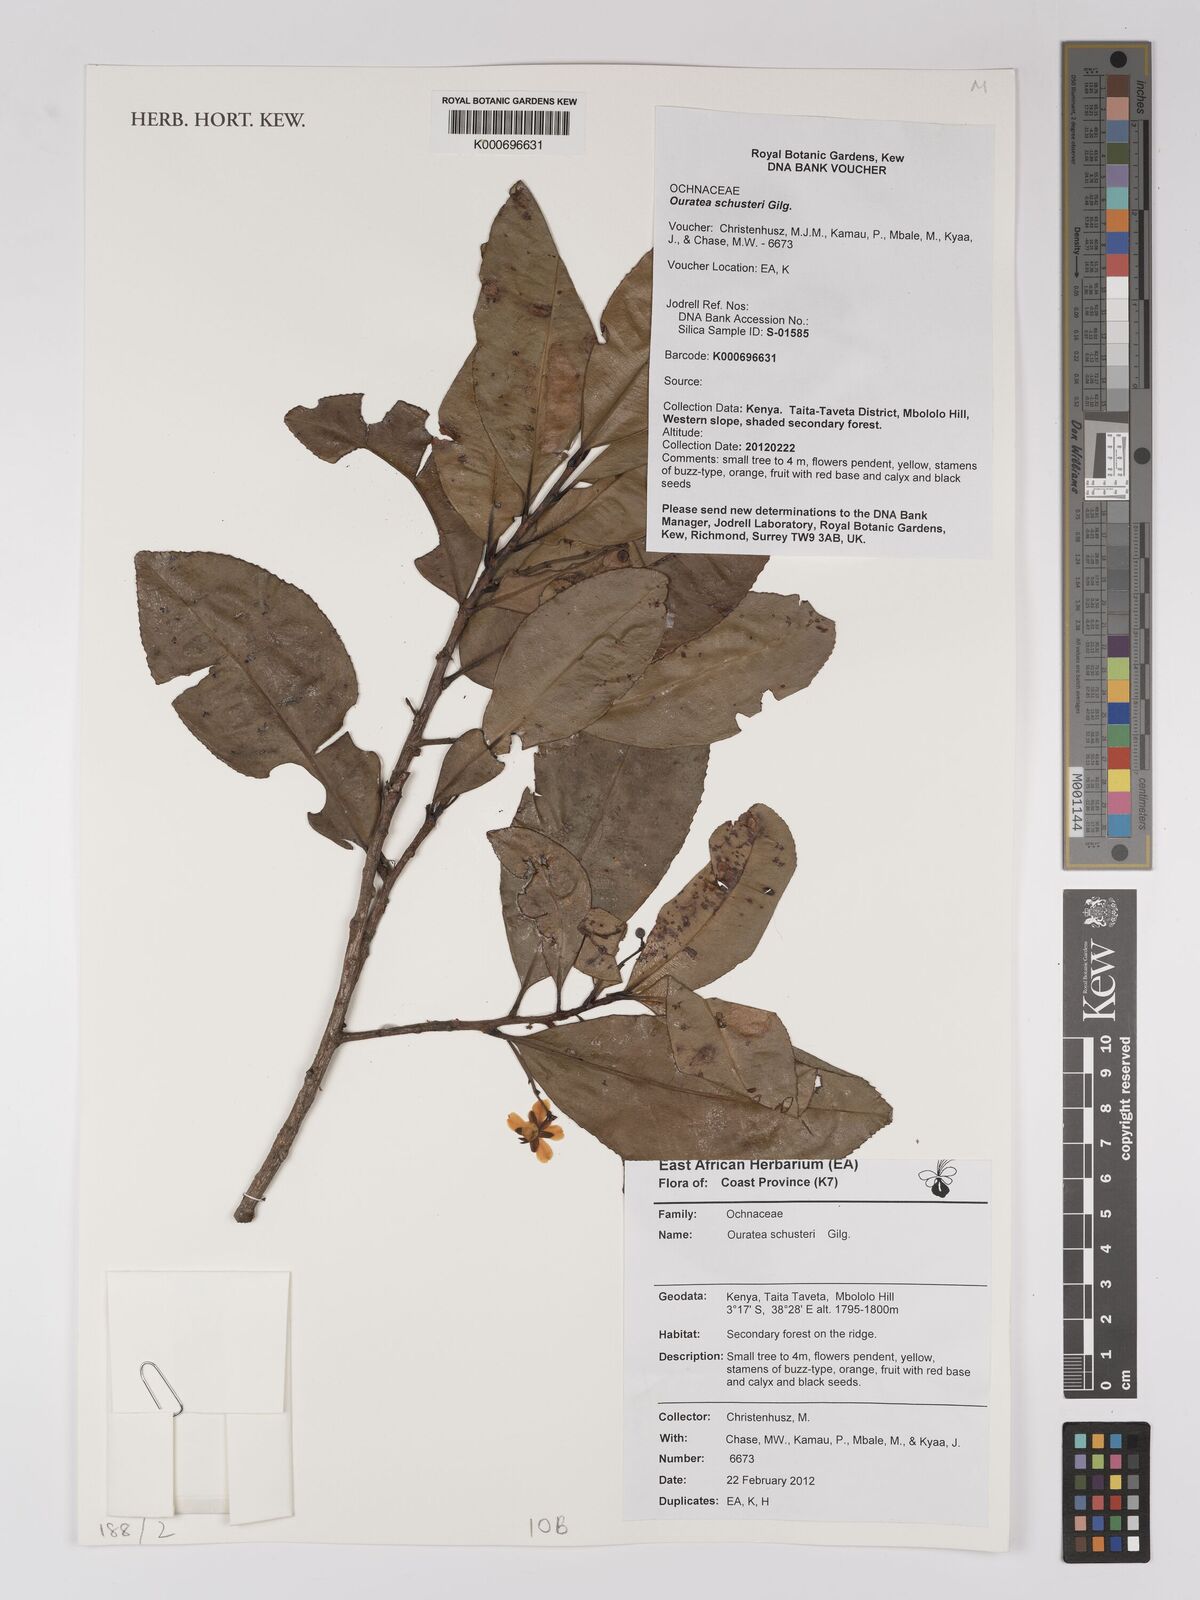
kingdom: Plantae
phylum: Tracheophyta
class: Magnoliopsida
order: Malpighiales
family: Ochnaceae
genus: Gomphia
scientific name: Gomphia scheffleri
